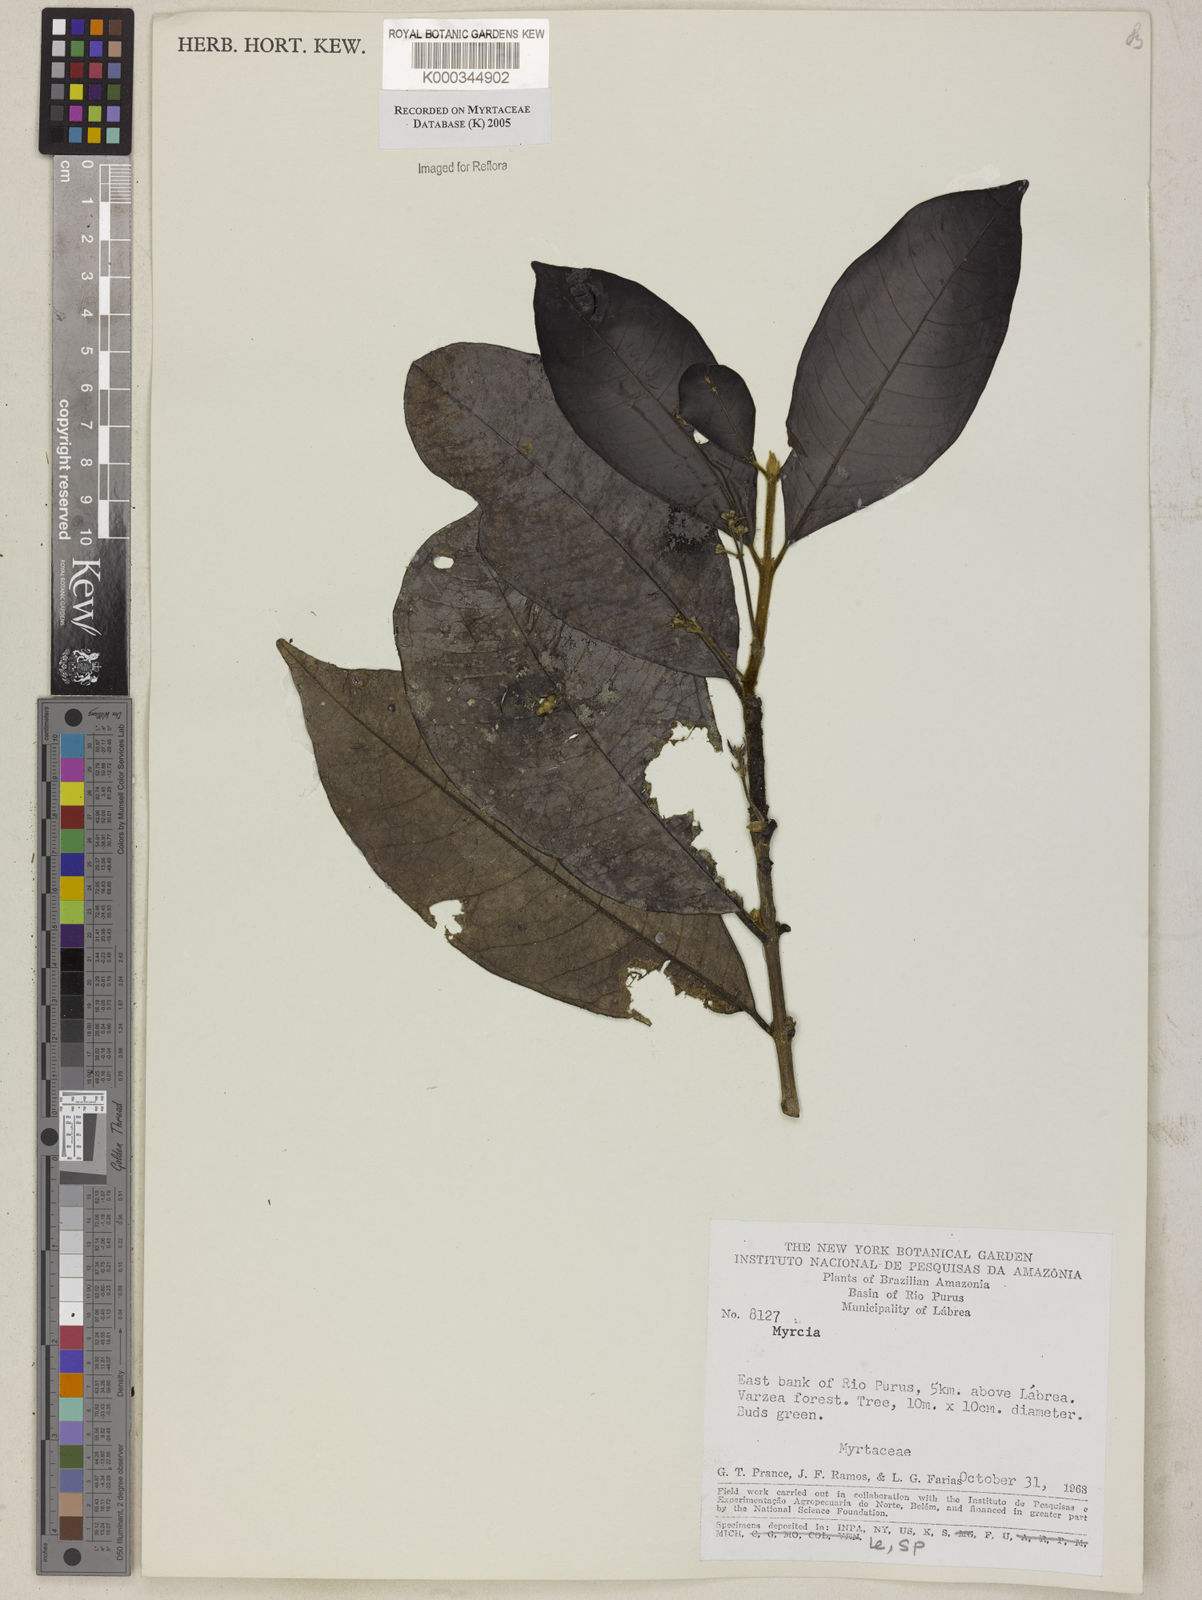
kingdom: Plantae
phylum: Tracheophyta
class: Magnoliopsida
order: Myrtales
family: Myrtaceae
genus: Myrcia
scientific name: Myrcia
